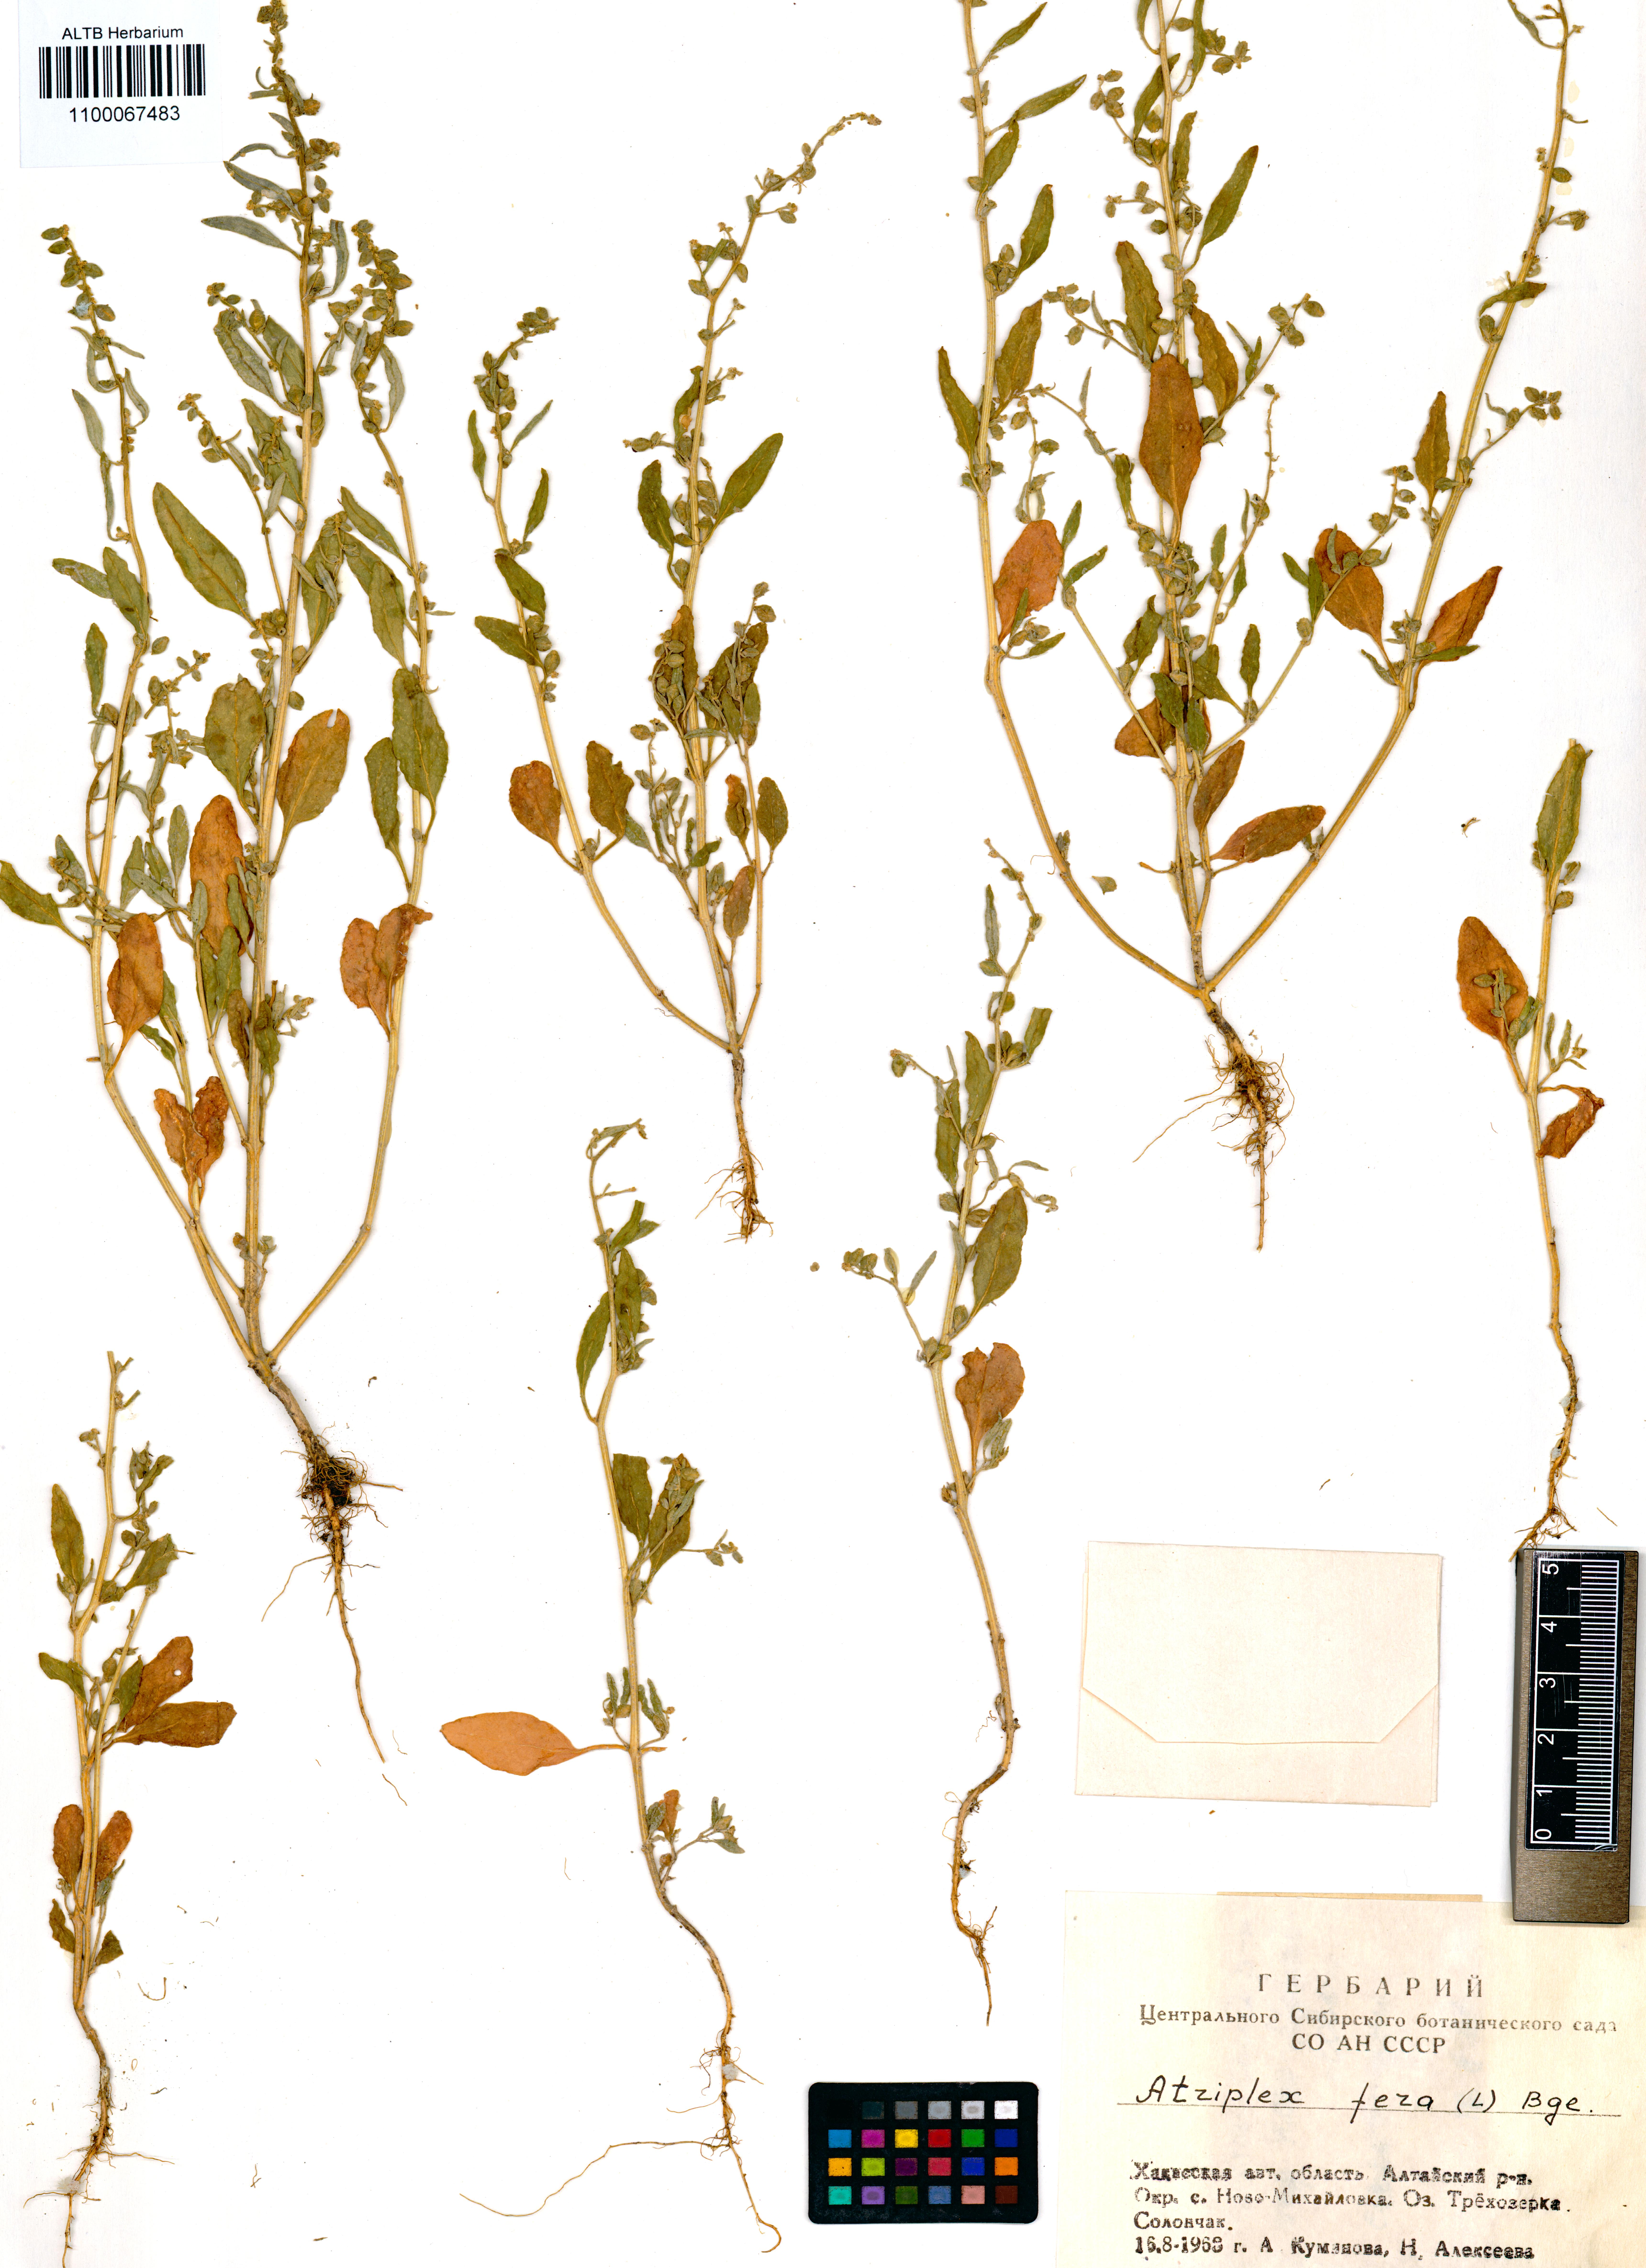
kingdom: Plantae
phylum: Tracheophyta
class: Magnoliopsida
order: Caryophyllales
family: Amaranthaceae
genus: Atriplex
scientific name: Atriplex fera
